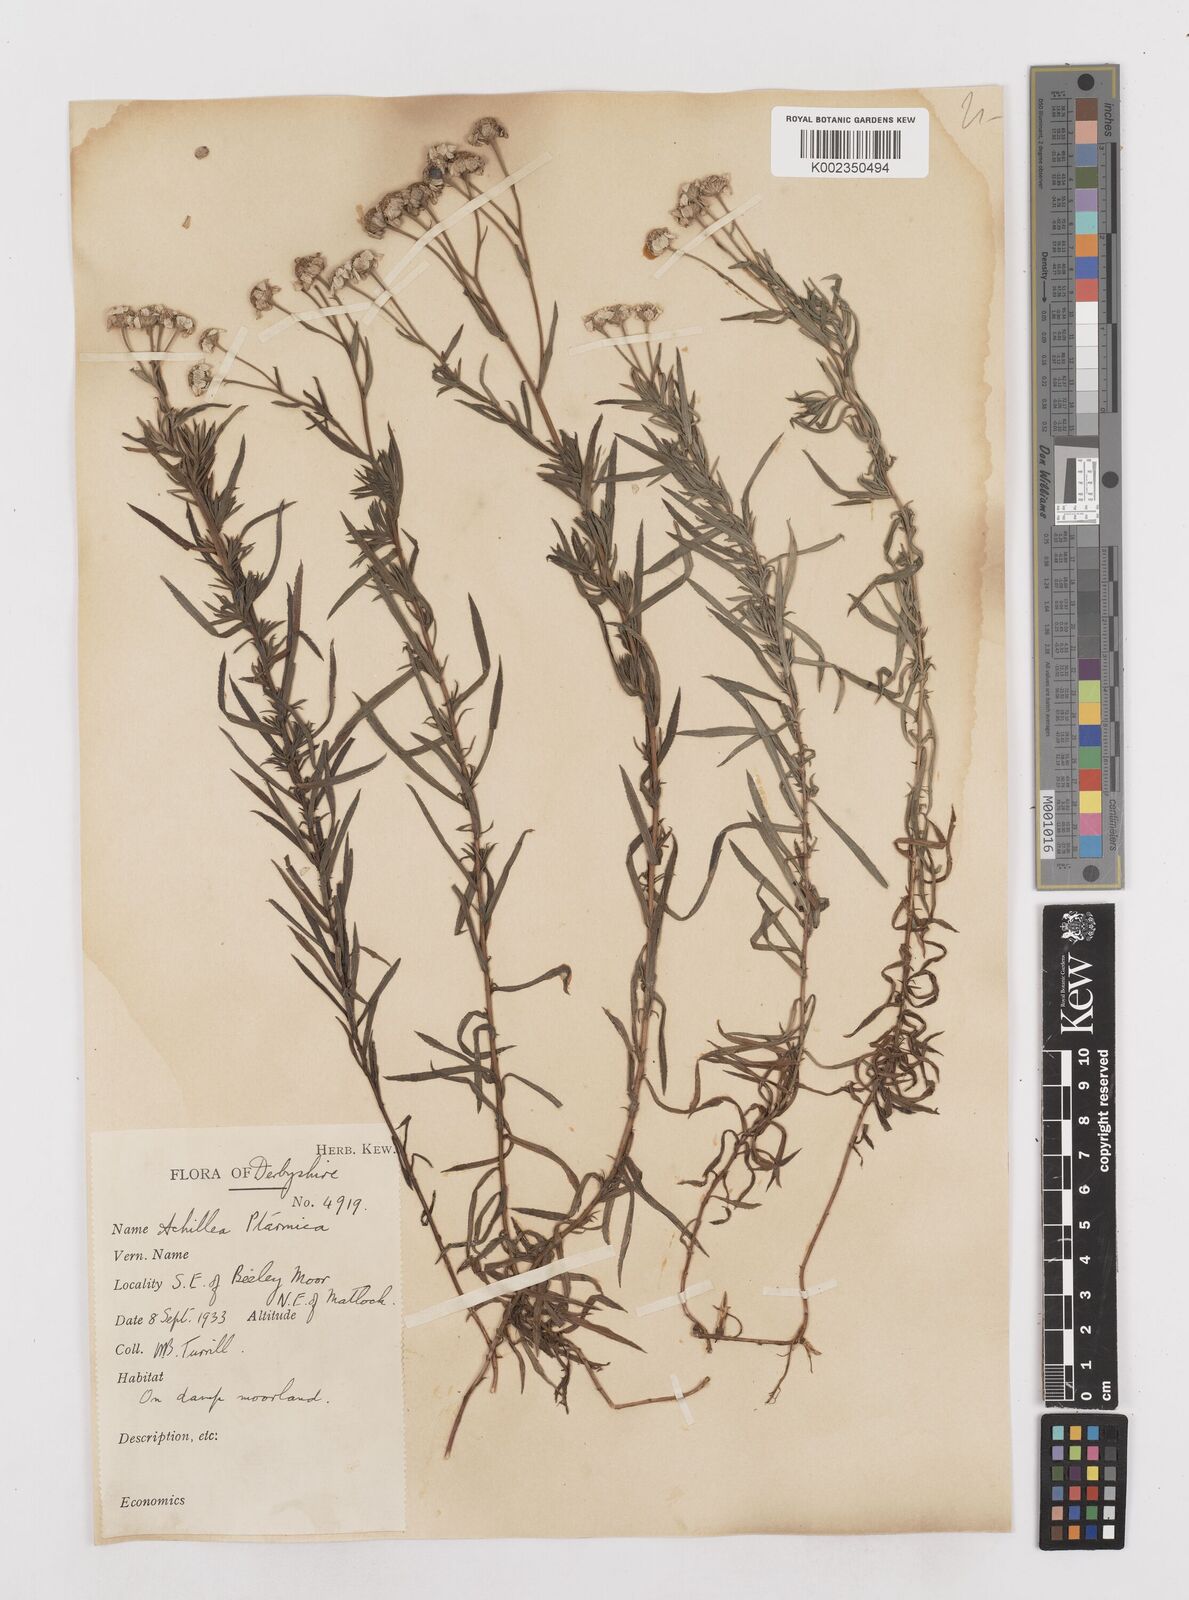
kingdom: Plantae
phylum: Tracheophyta
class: Magnoliopsida
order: Asterales
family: Asteraceae
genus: Achillea
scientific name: Achillea ptarmica
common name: Sneezeweed
